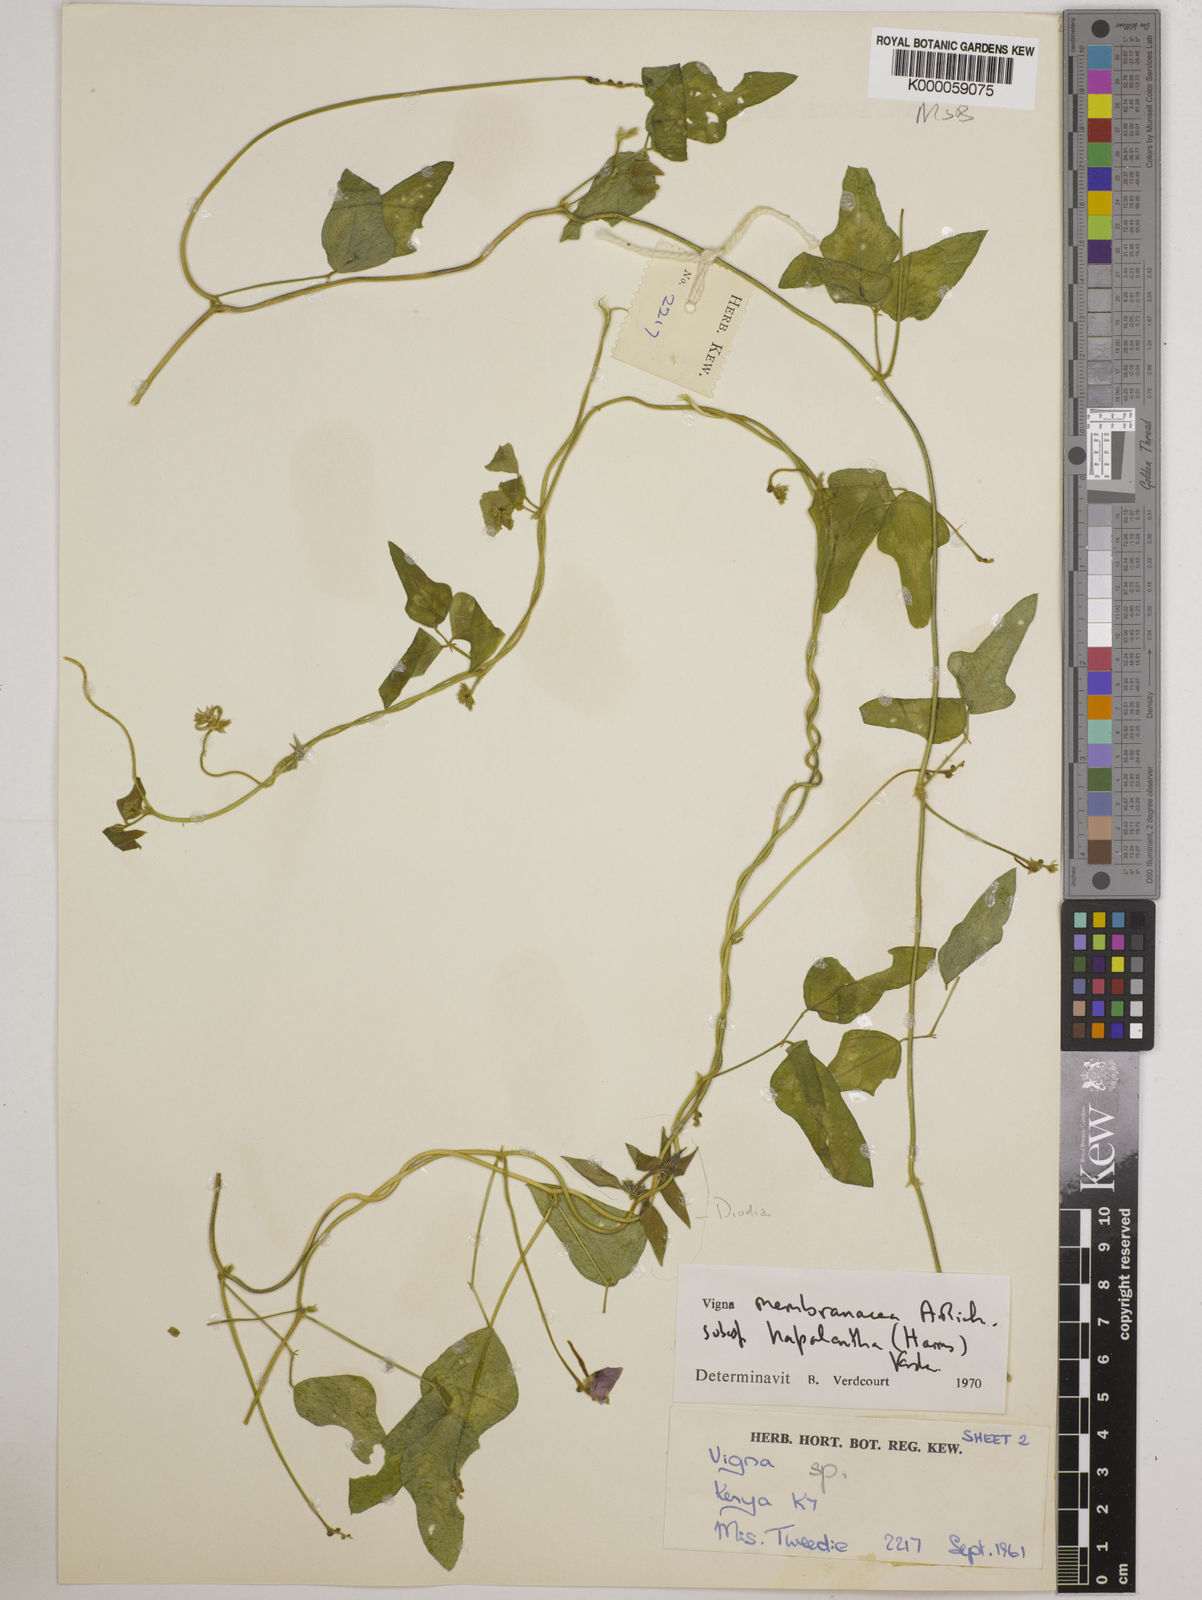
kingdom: Plantae
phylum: Tracheophyta
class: Magnoliopsida
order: Fabales
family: Fabaceae
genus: Vigna
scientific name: Vigna
